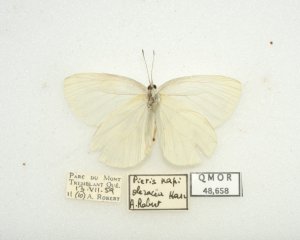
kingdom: Animalia
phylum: Arthropoda
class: Insecta
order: Lepidoptera
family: Pieridae
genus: Pieris
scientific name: Pieris oleracea
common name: Mustard White
